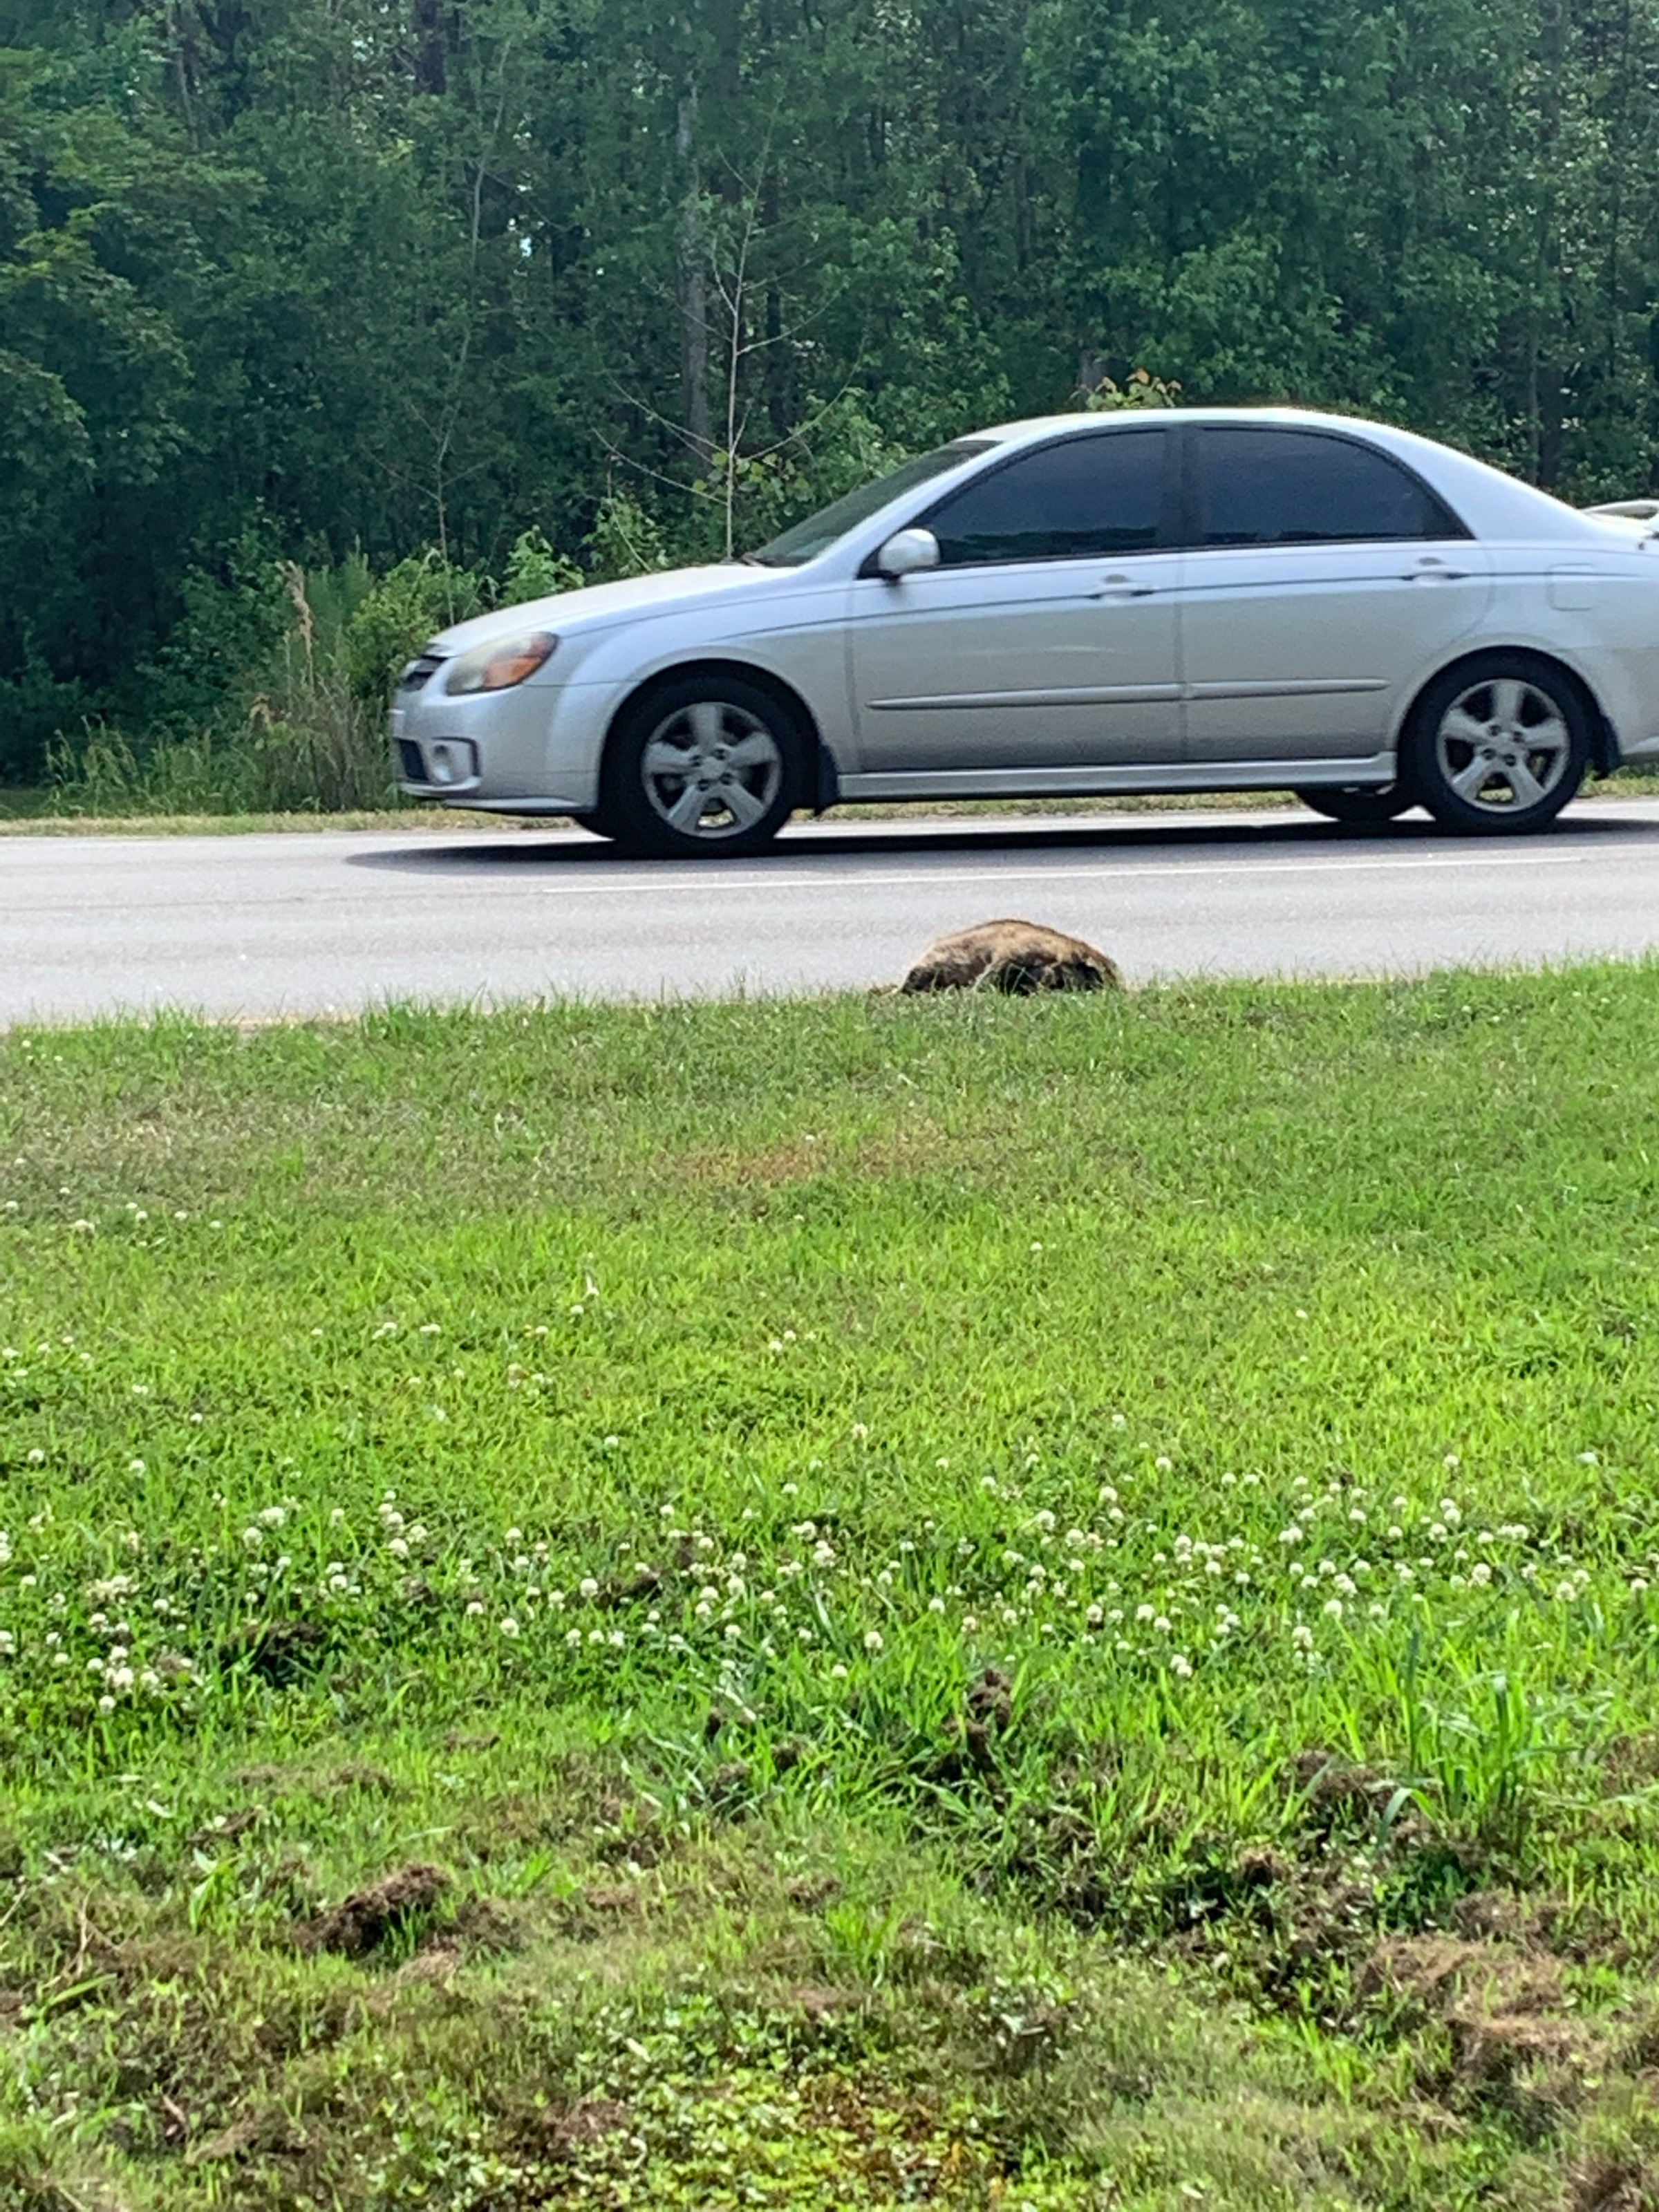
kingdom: Animalia
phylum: Chordata
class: Mammalia
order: Carnivora
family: Procyonidae
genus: Procyon
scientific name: Procyon lotor
